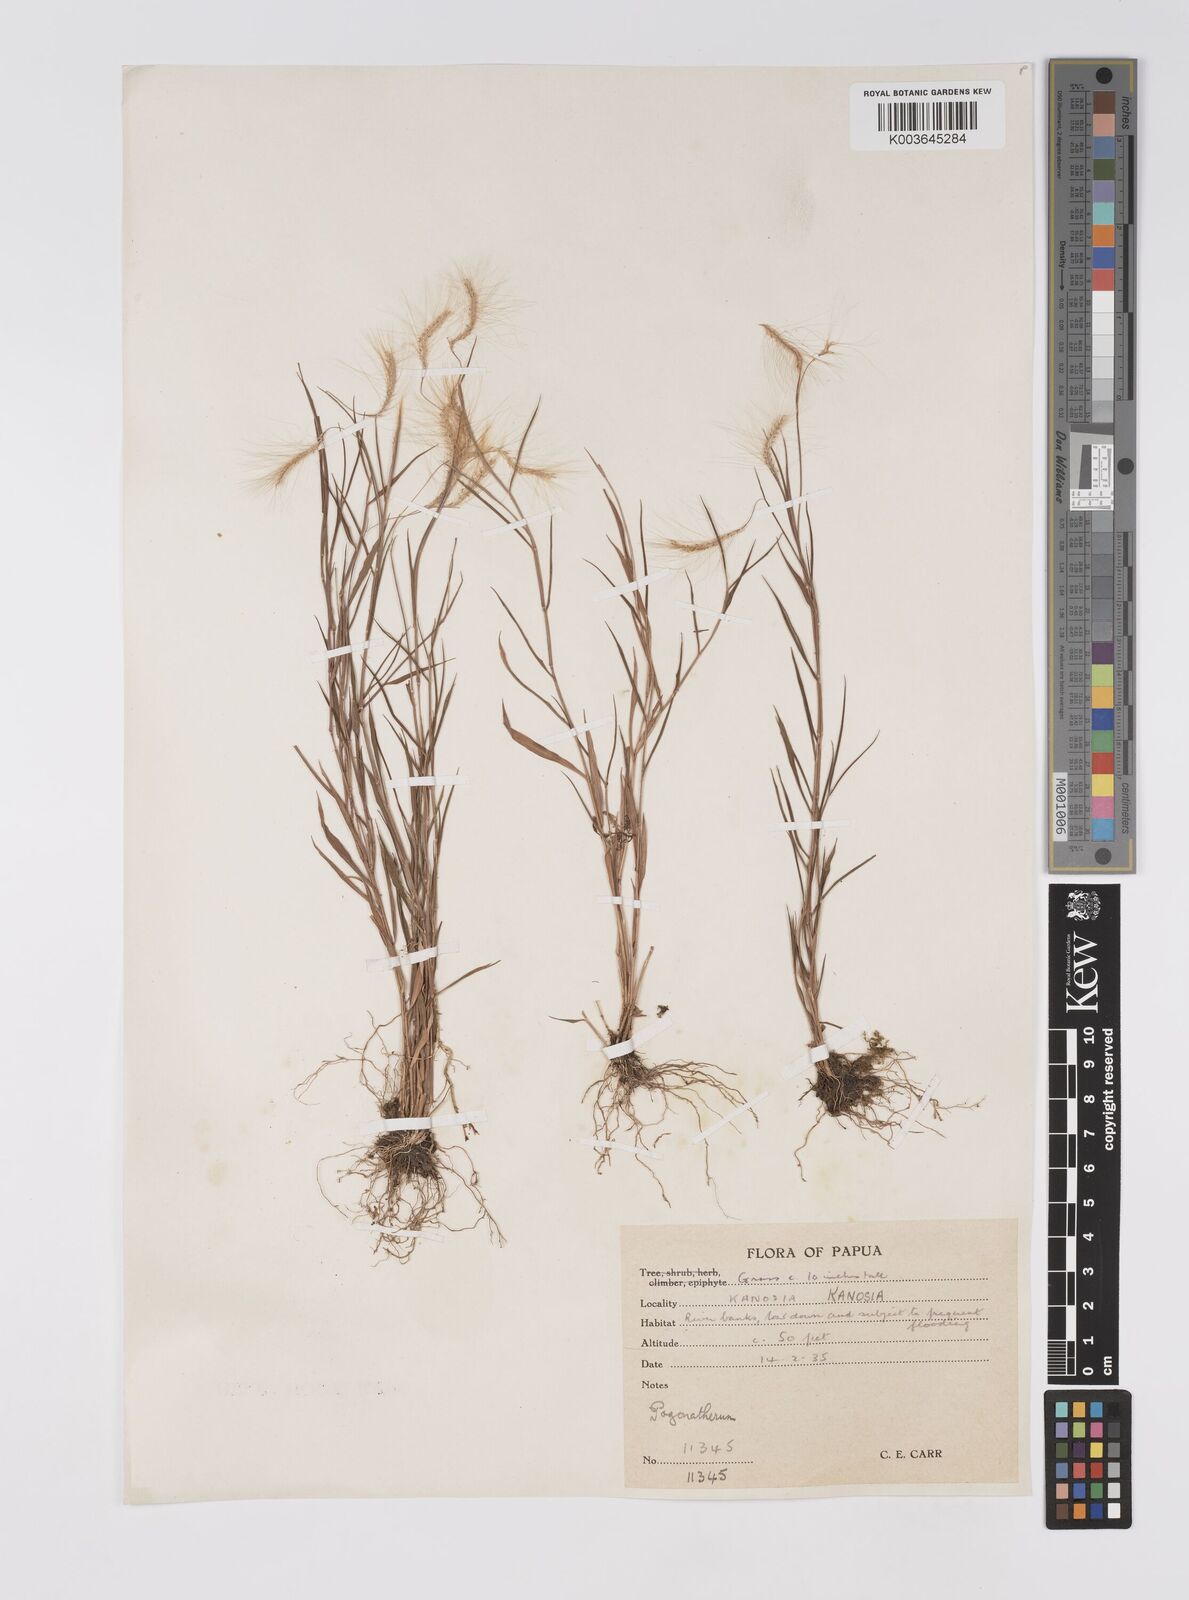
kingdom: Plantae
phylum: Tracheophyta
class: Liliopsida
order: Poales
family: Poaceae
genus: Pogonatherum
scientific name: Pogonatherum crinitum
